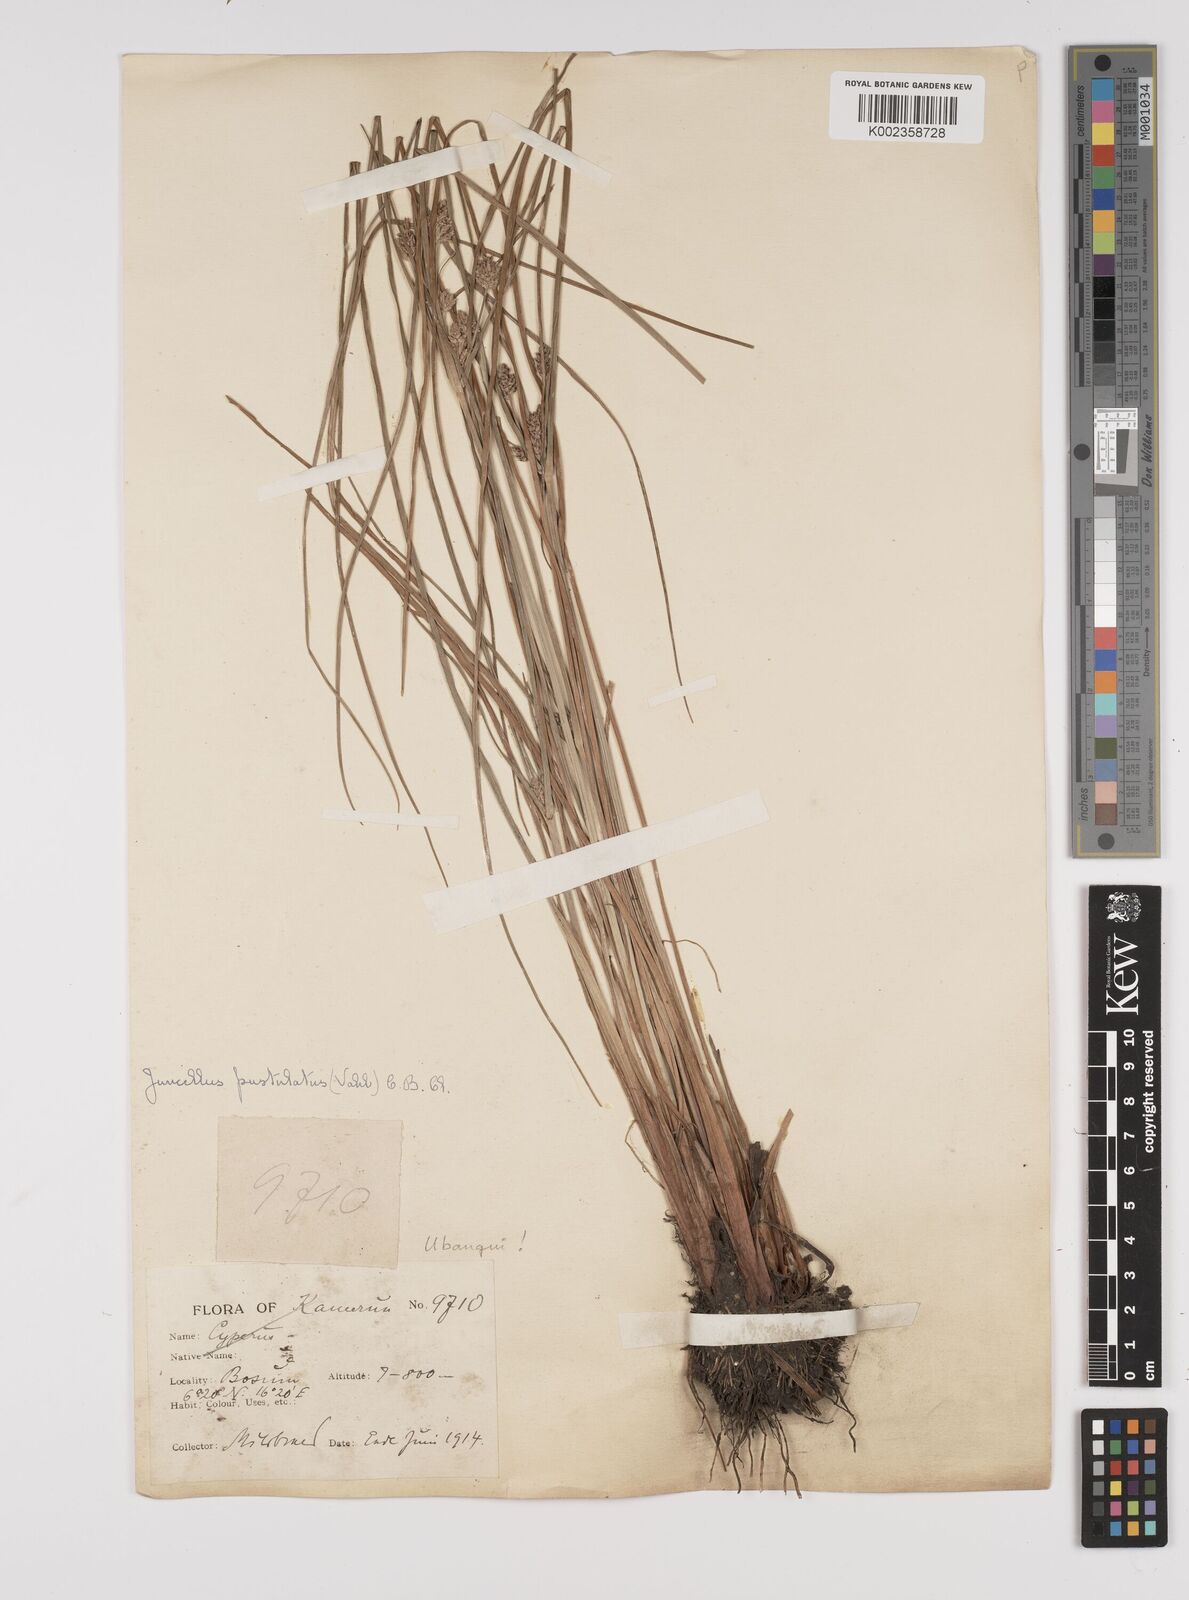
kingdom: Plantae
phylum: Tracheophyta
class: Liliopsida
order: Poales
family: Cyperaceae
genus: Cyperus
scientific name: Cyperus pustulatus
